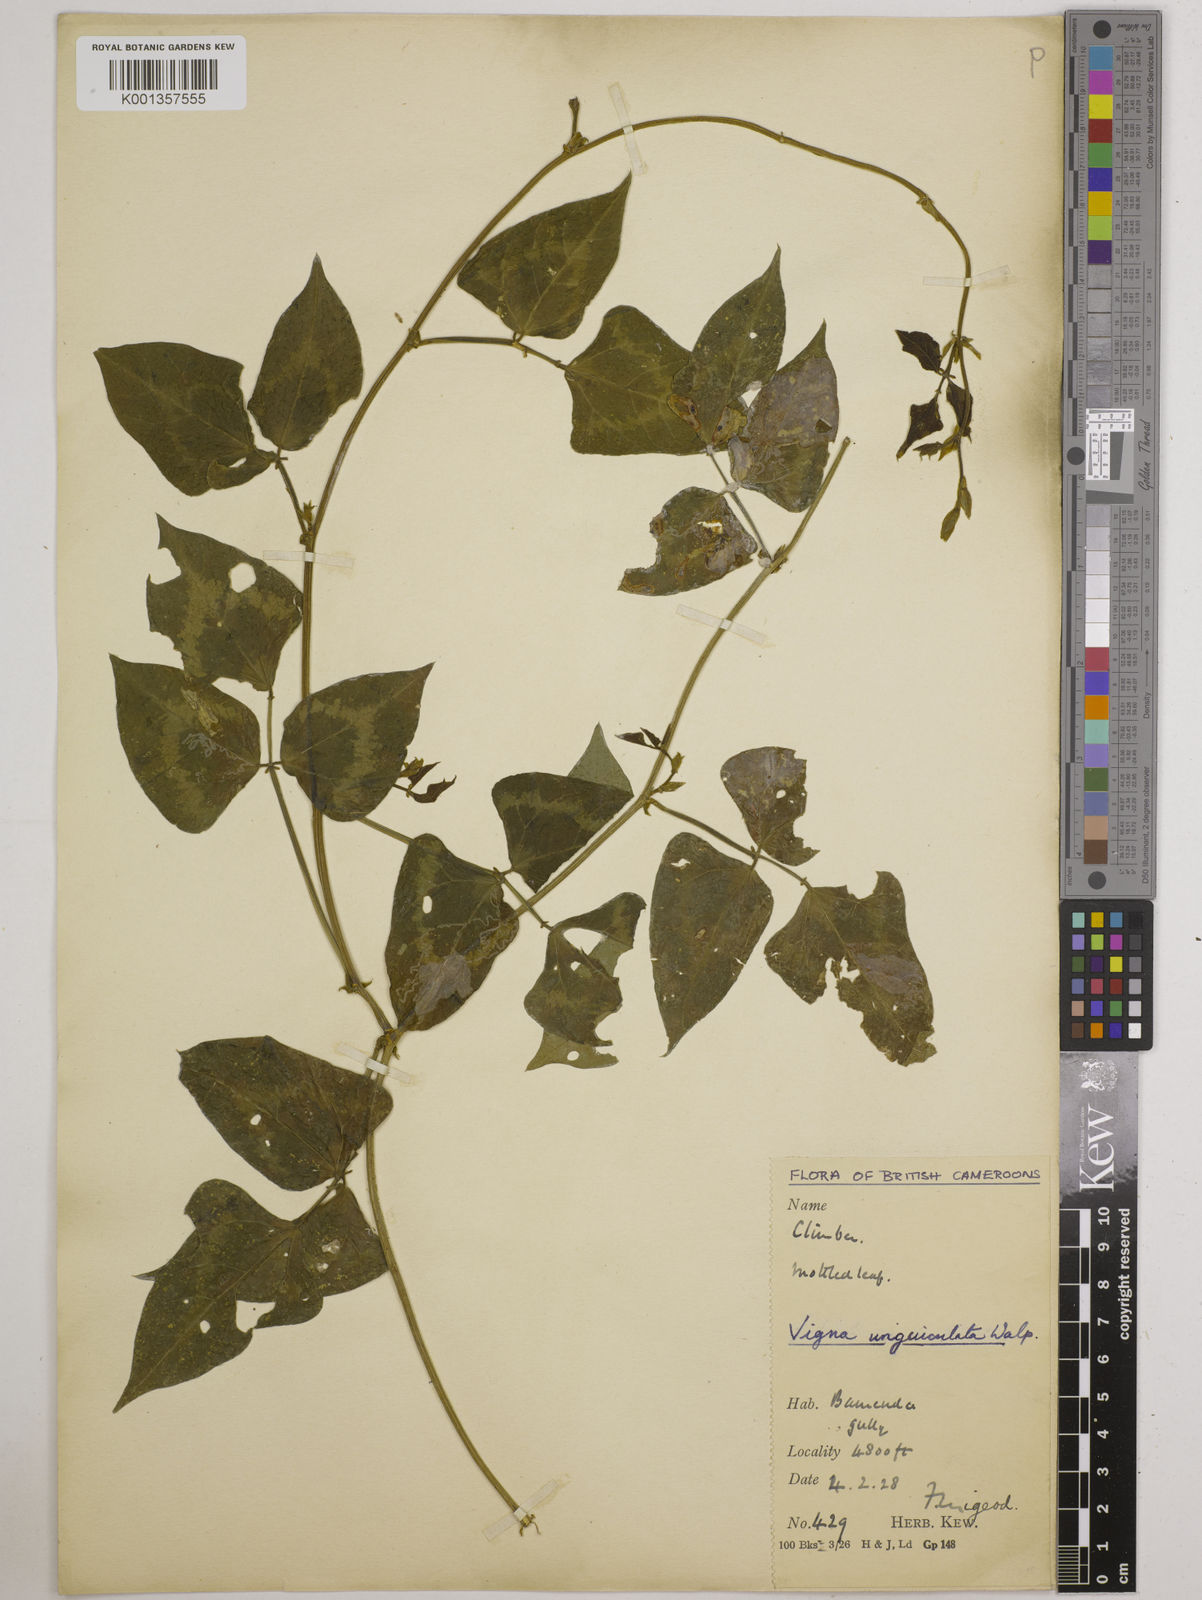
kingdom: Plantae
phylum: Tracheophyta
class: Magnoliopsida
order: Fabales
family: Fabaceae
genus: Vigna
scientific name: Vigna
